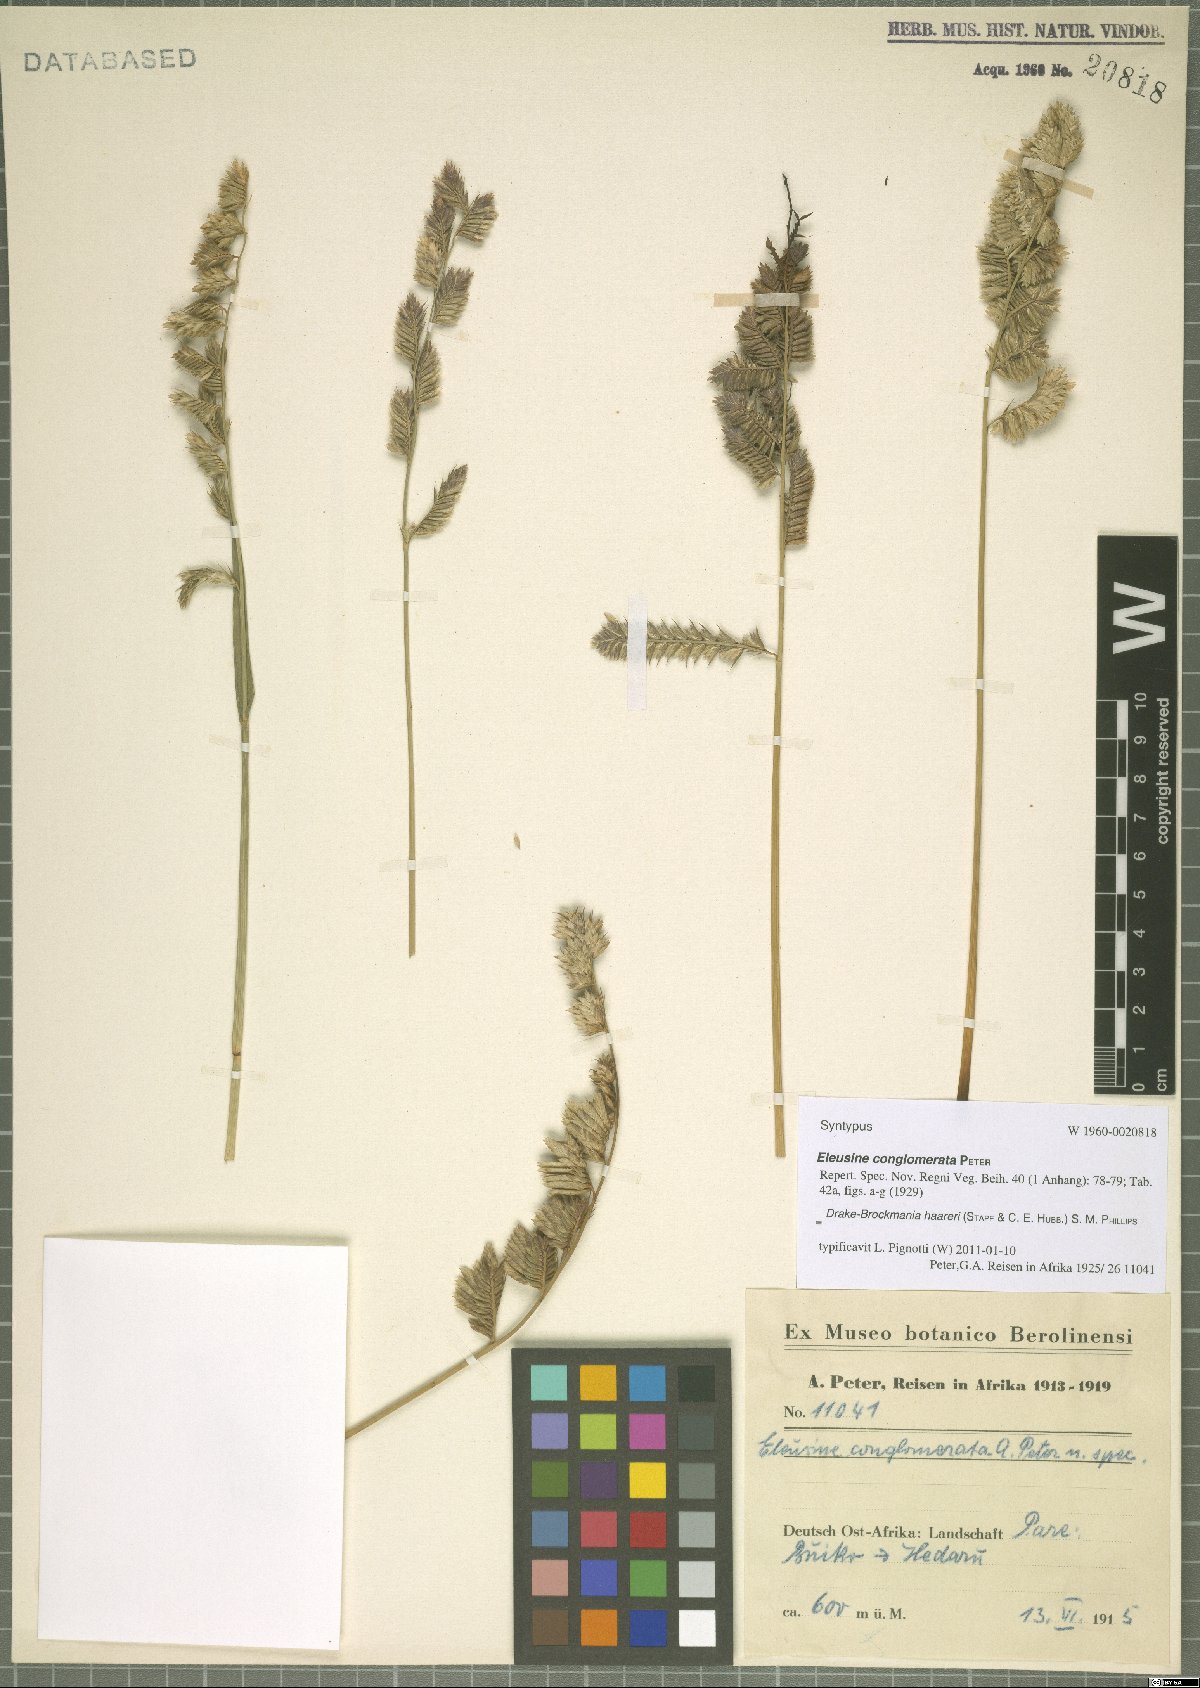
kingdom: Plantae
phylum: Tracheophyta
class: Liliopsida
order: Poales
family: Poaceae
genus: Dinebra
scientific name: Dinebra haareri
